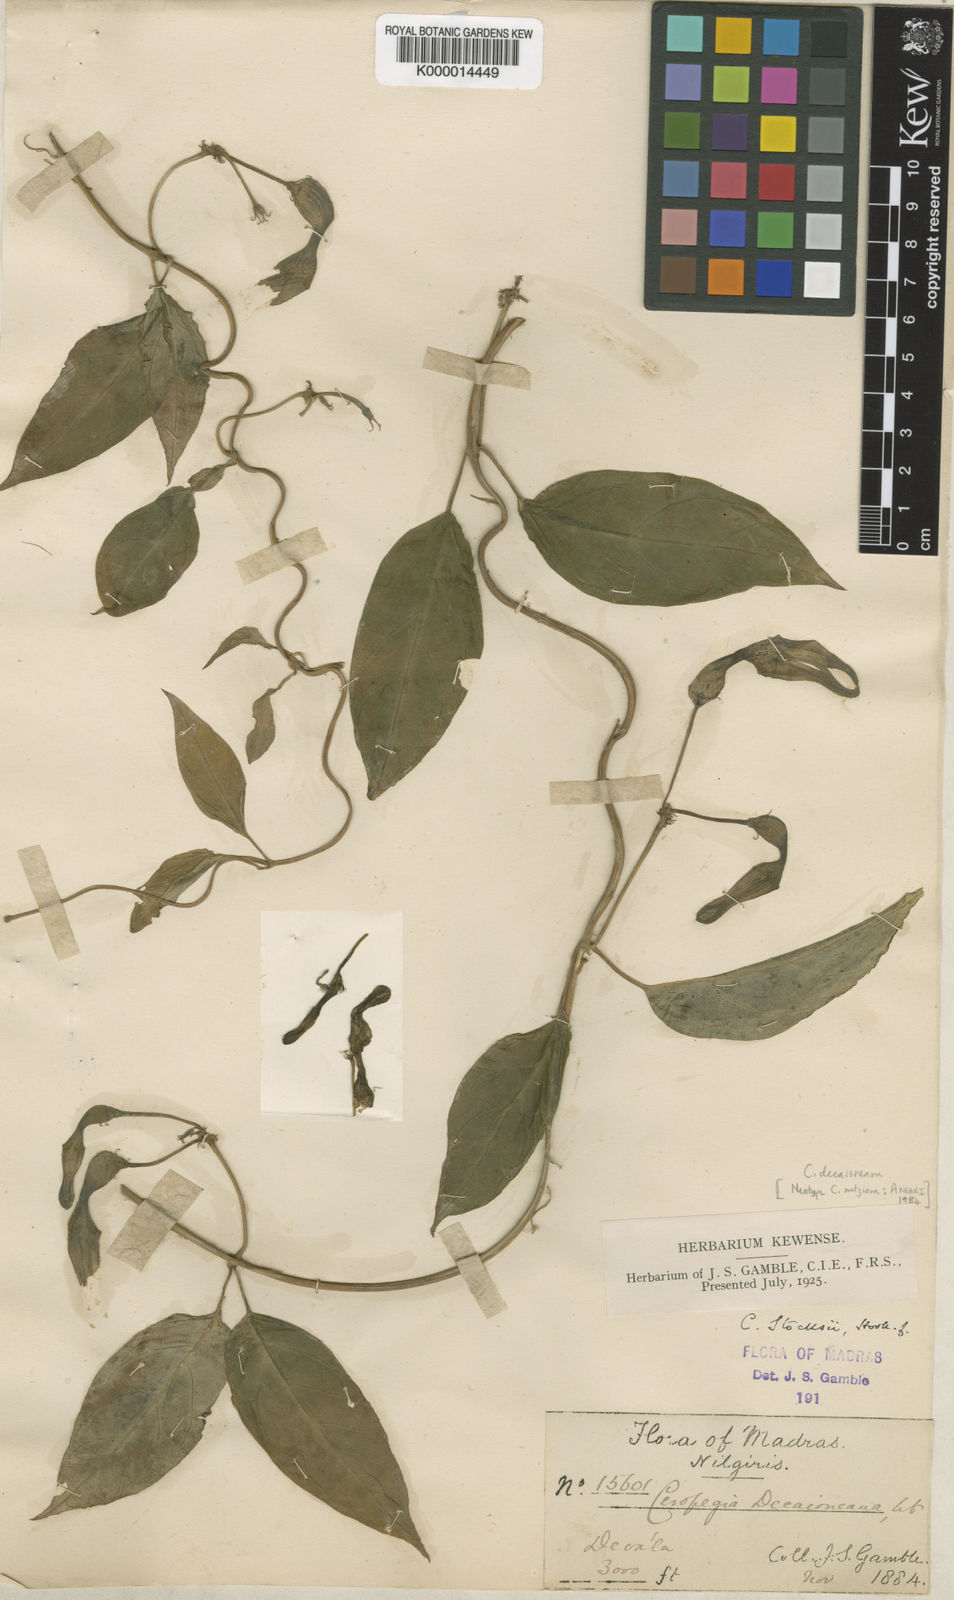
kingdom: Plantae
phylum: Tracheophyta
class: Magnoliopsida
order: Gentianales
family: Apocynaceae
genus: Ceropegia
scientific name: Ceropegia metziana
